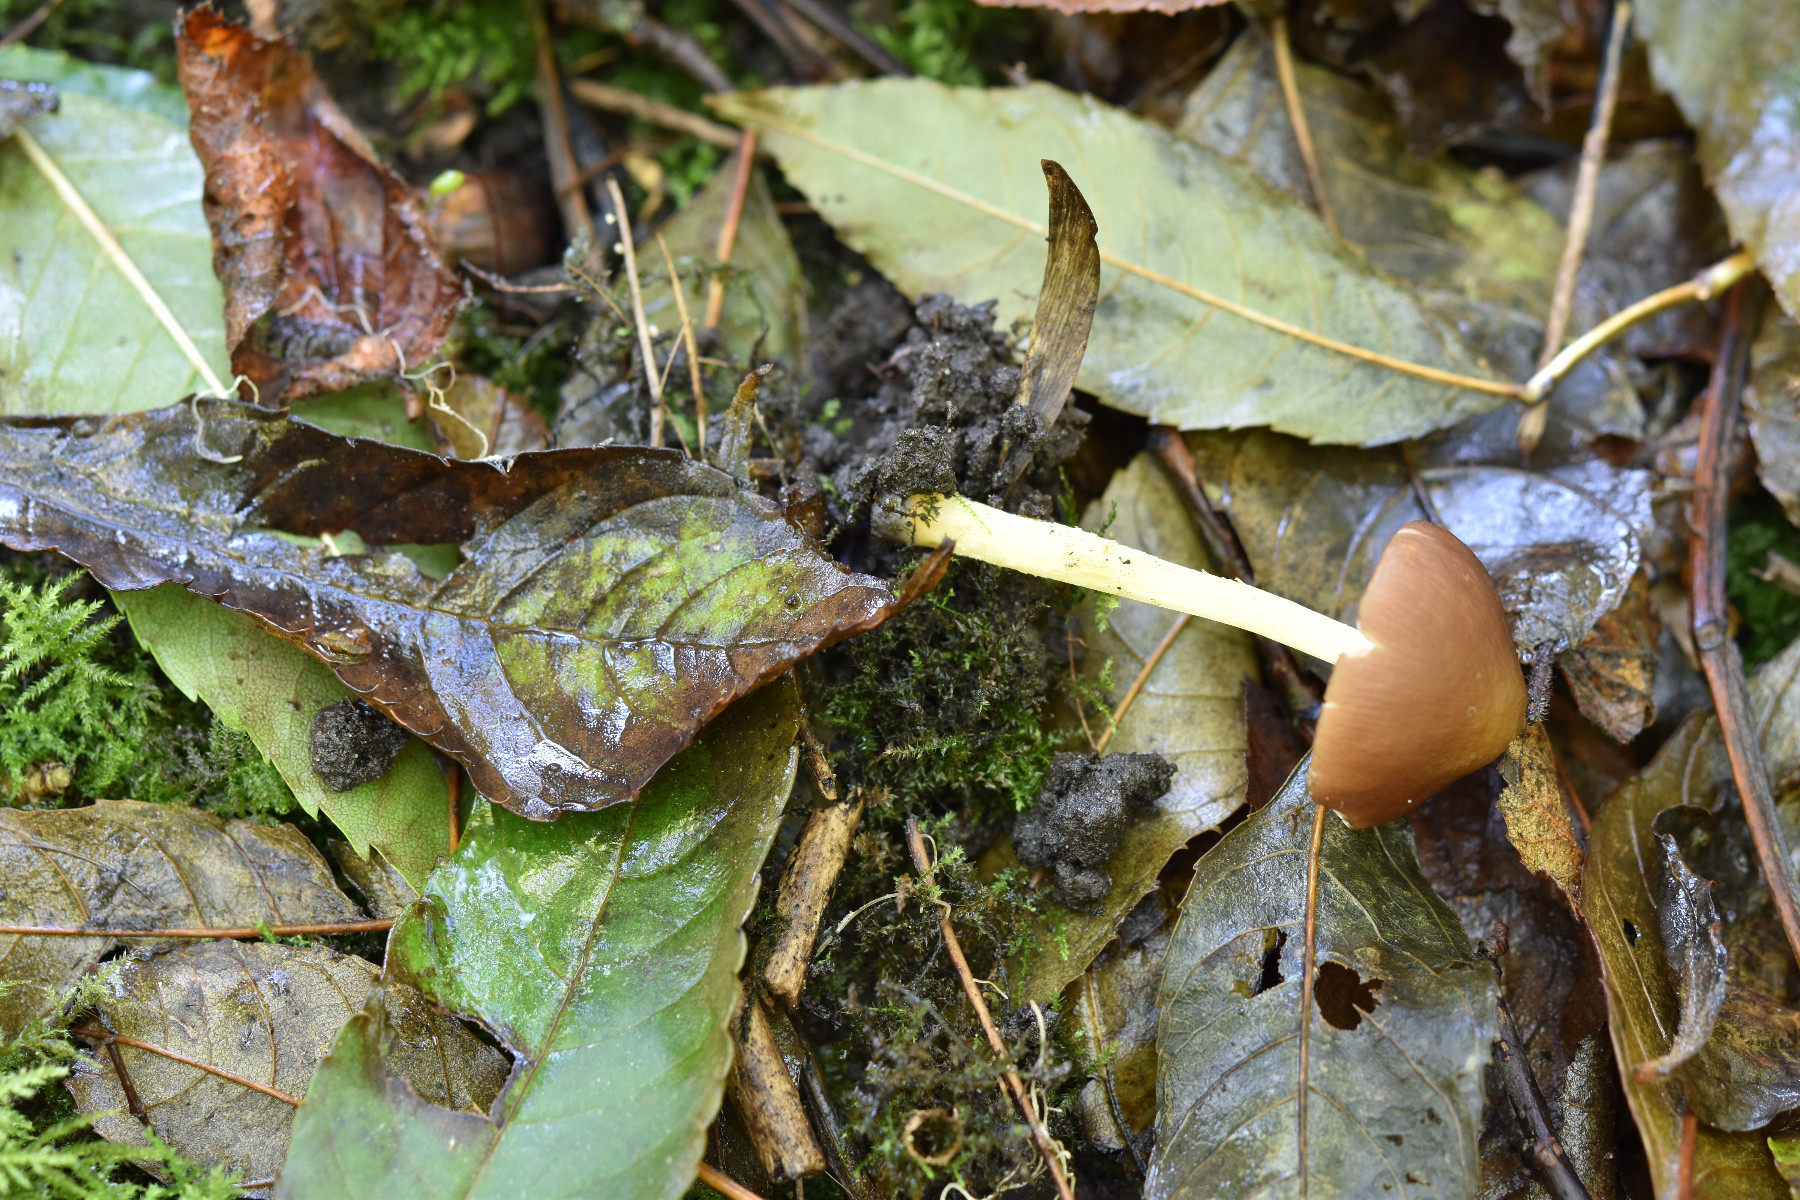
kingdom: Fungi
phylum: Basidiomycota
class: Agaricomycetes
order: Agaricales
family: Pluteaceae
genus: Pluteus
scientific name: Pluteus romellii
